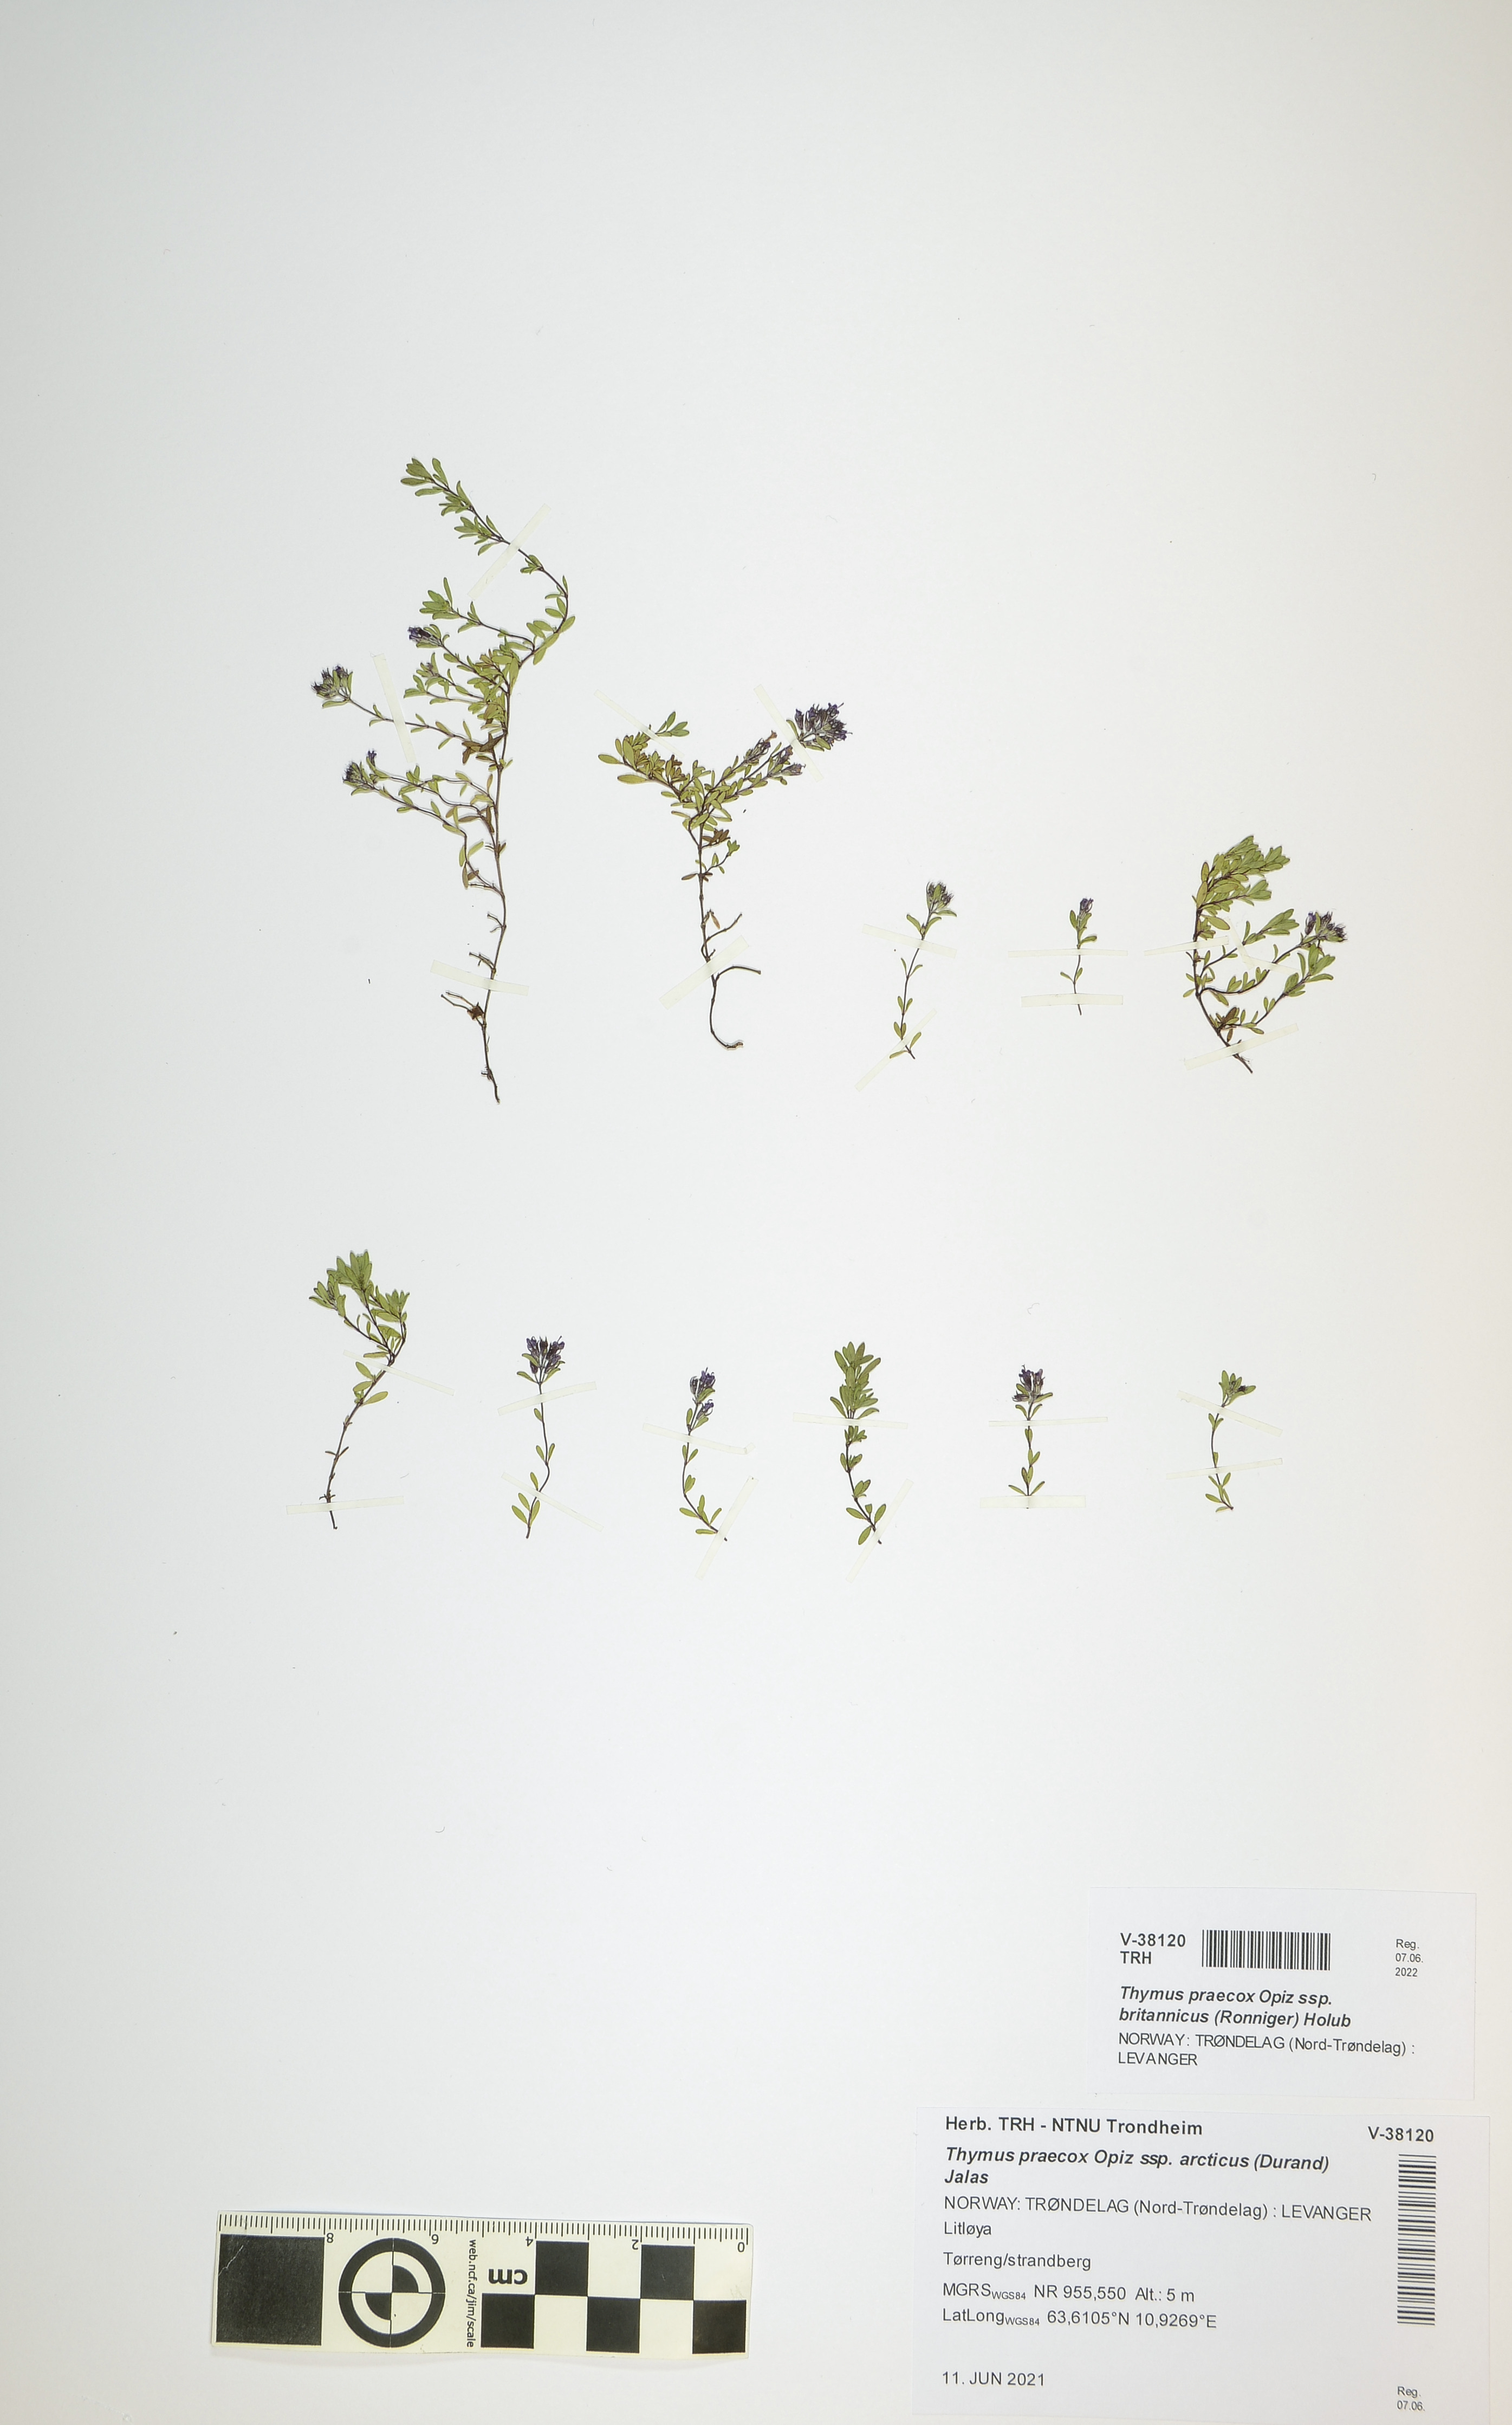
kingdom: Plantae
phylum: Tracheophyta
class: Magnoliopsida
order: Lamiales
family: Lamiaceae
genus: Thymus
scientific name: Thymus praecox
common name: Wild thyme
